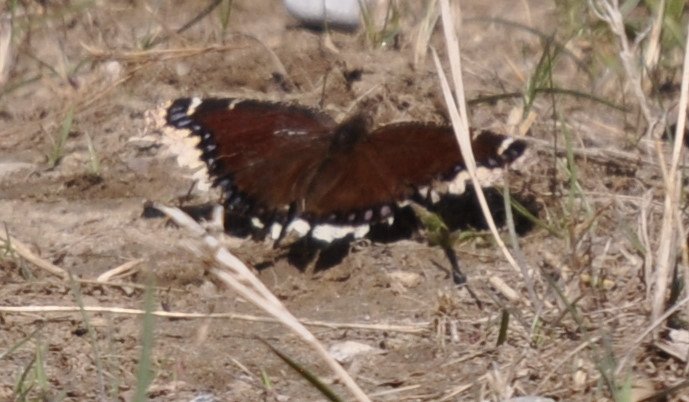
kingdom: Animalia
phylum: Arthropoda
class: Insecta
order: Lepidoptera
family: Nymphalidae
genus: Nymphalis
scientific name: Nymphalis antiopa
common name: Mourning Cloak
